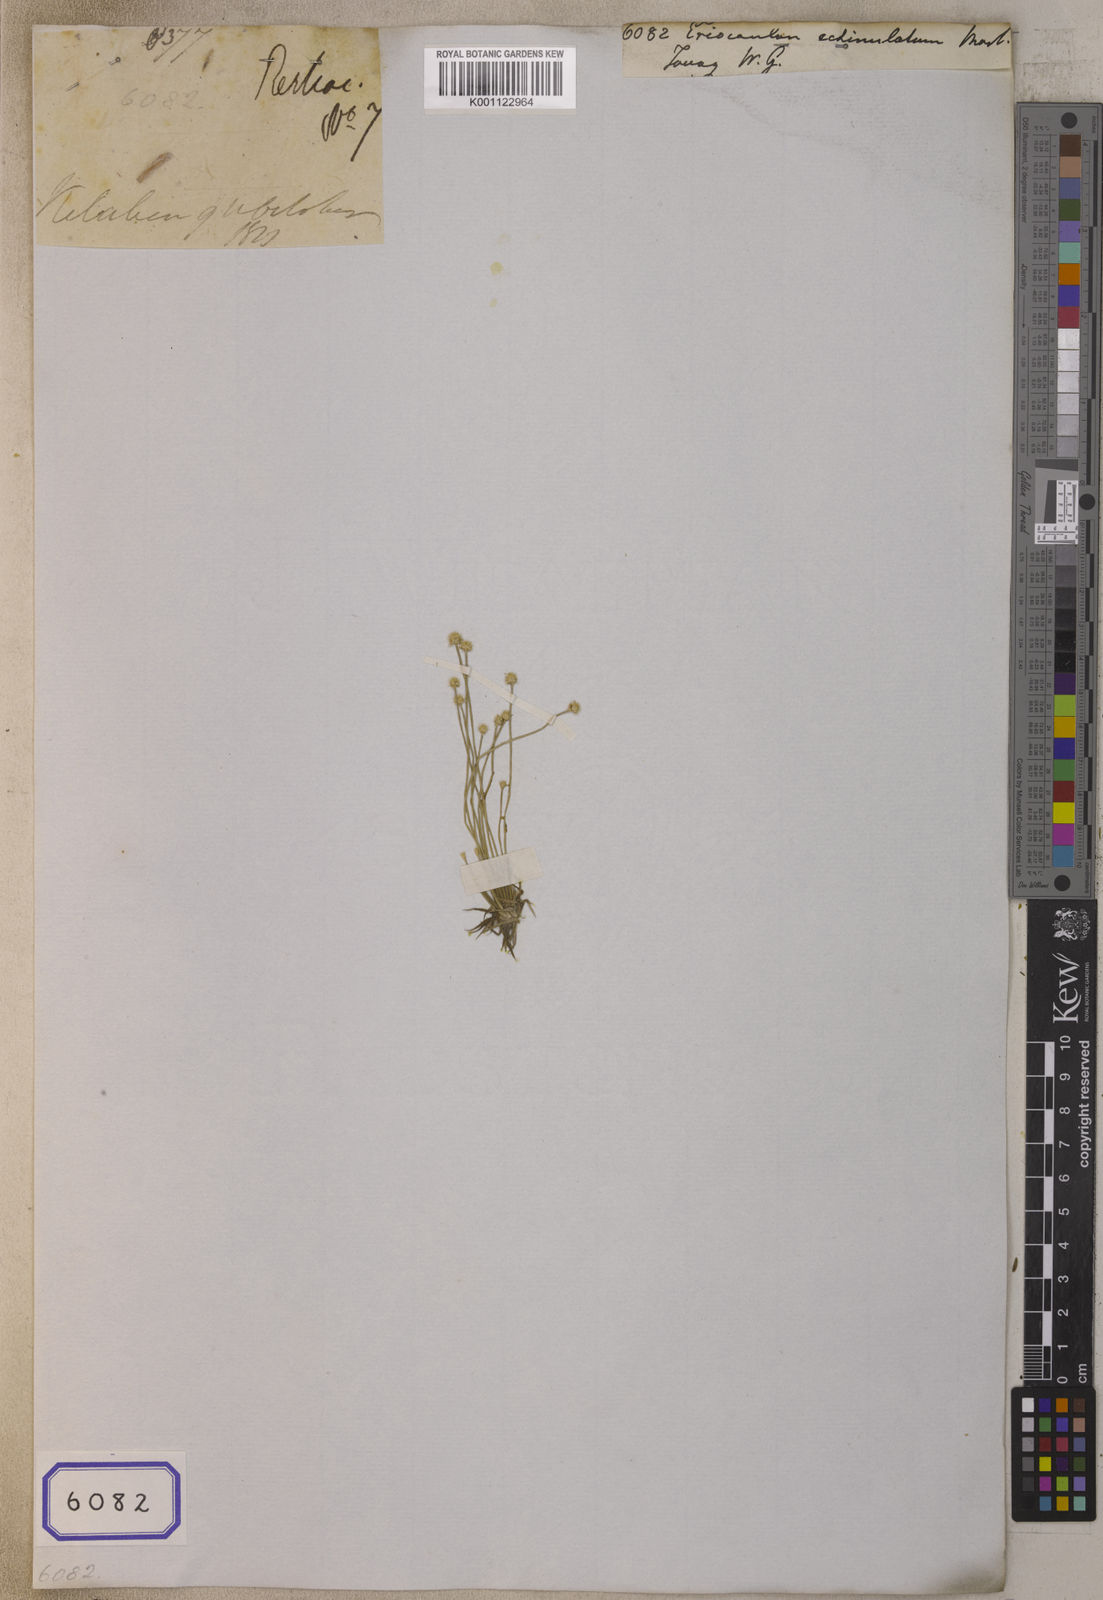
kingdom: Plantae
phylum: Tracheophyta
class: Liliopsida
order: Poales
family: Eriocaulaceae
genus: Eriocaulon
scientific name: Eriocaulon echinulatum
